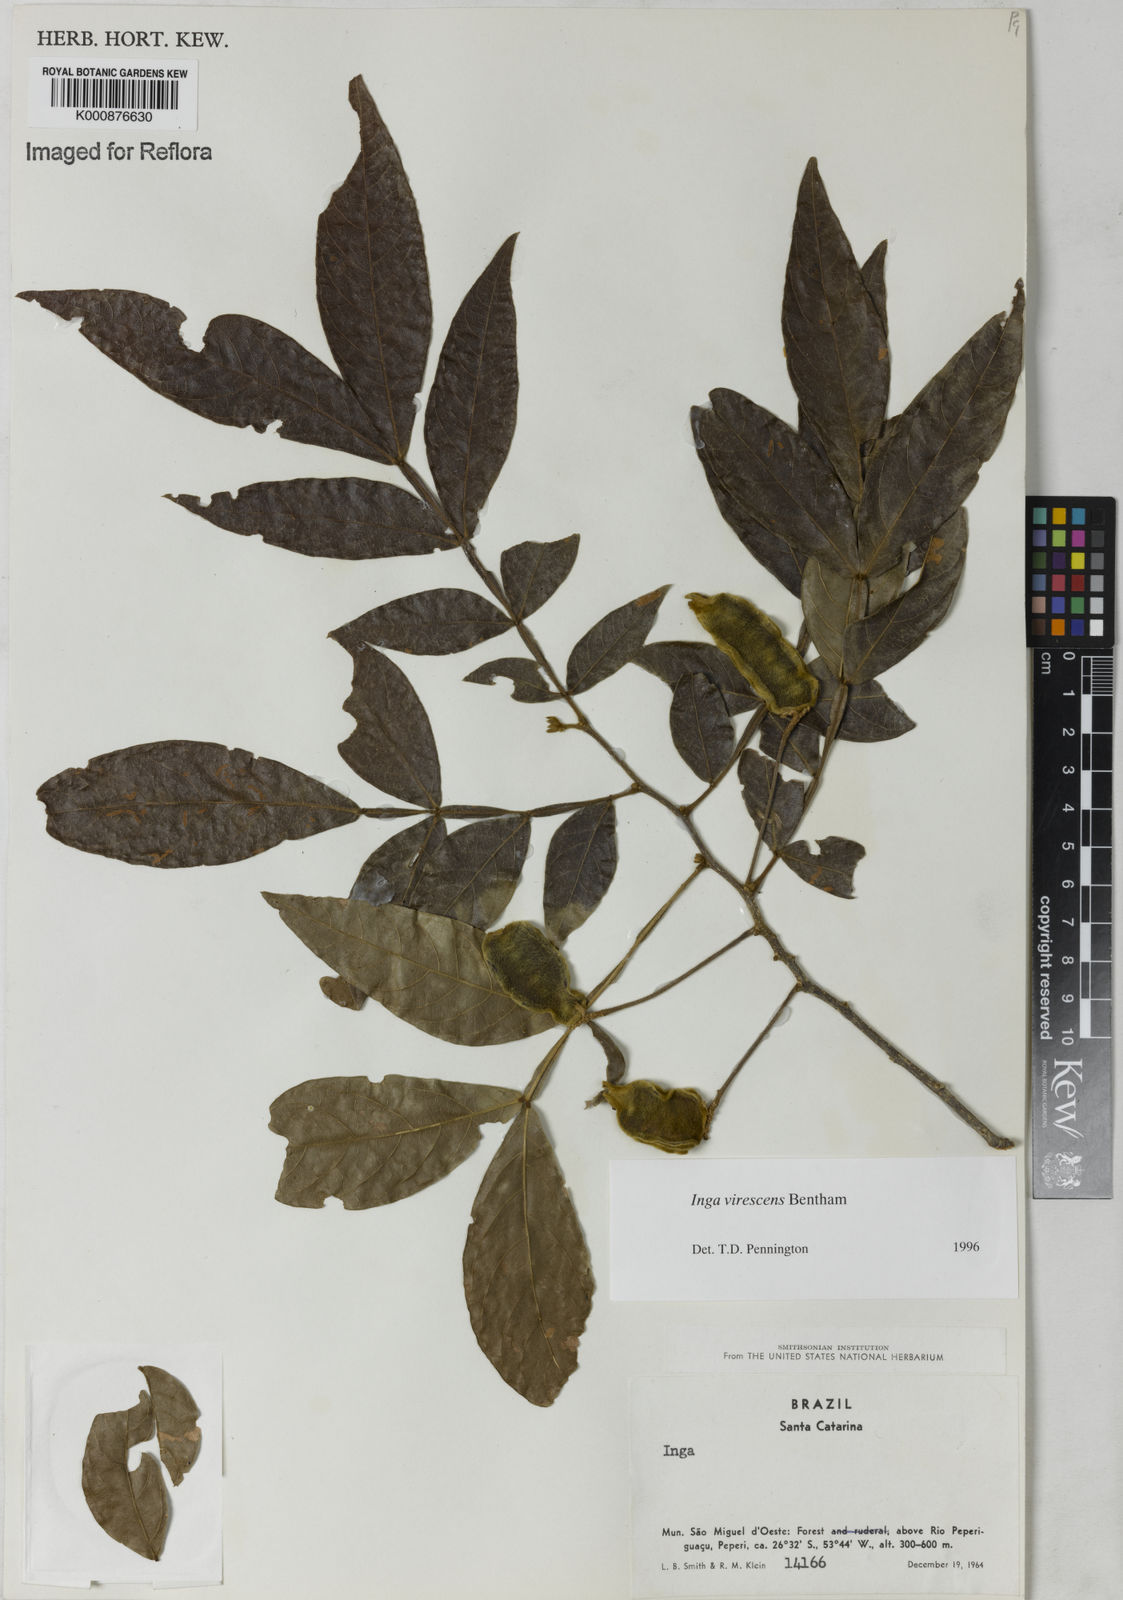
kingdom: Plantae
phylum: Tracheophyta
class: Magnoliopsida
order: Fabales
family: Fabaceae
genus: Inga
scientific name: Inga virescens
